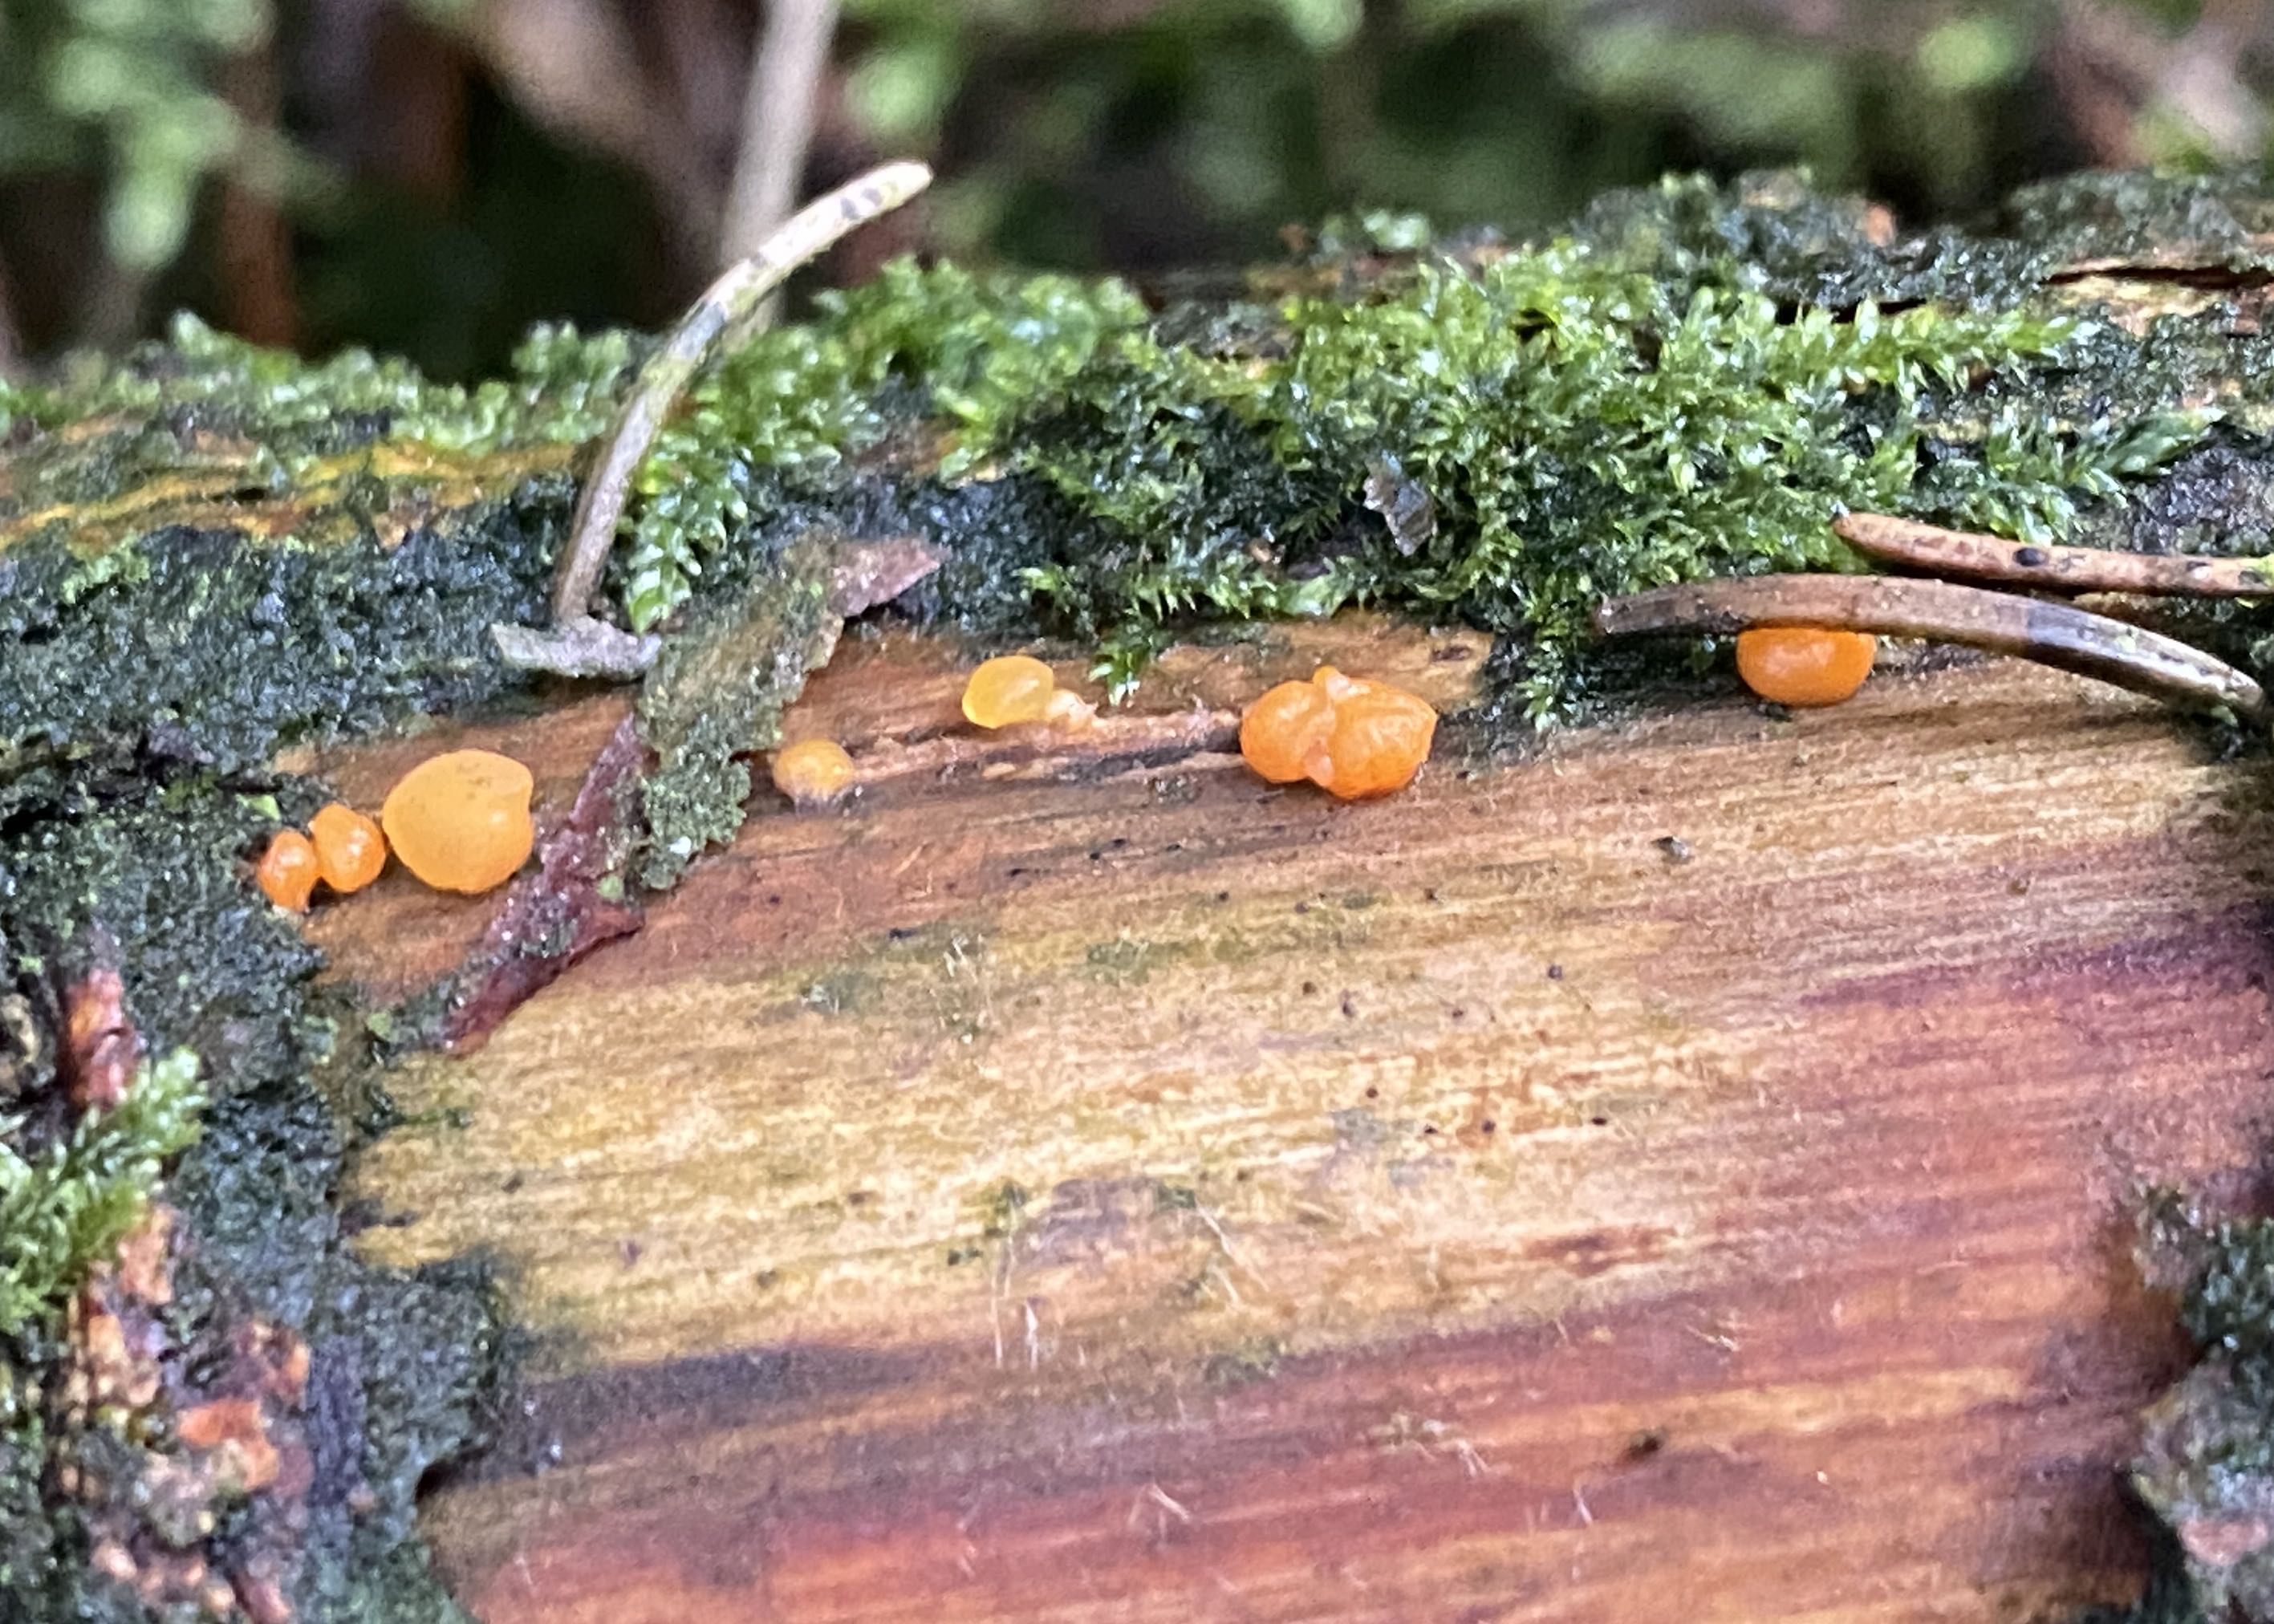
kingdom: Fungi
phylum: Basidiomycota
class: Dacrymycetes
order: Dacrymycetales
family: Dacrymycetaceae
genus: Dacrymyces
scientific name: Dacrymyces stillatus
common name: almindelig tåresvamp
